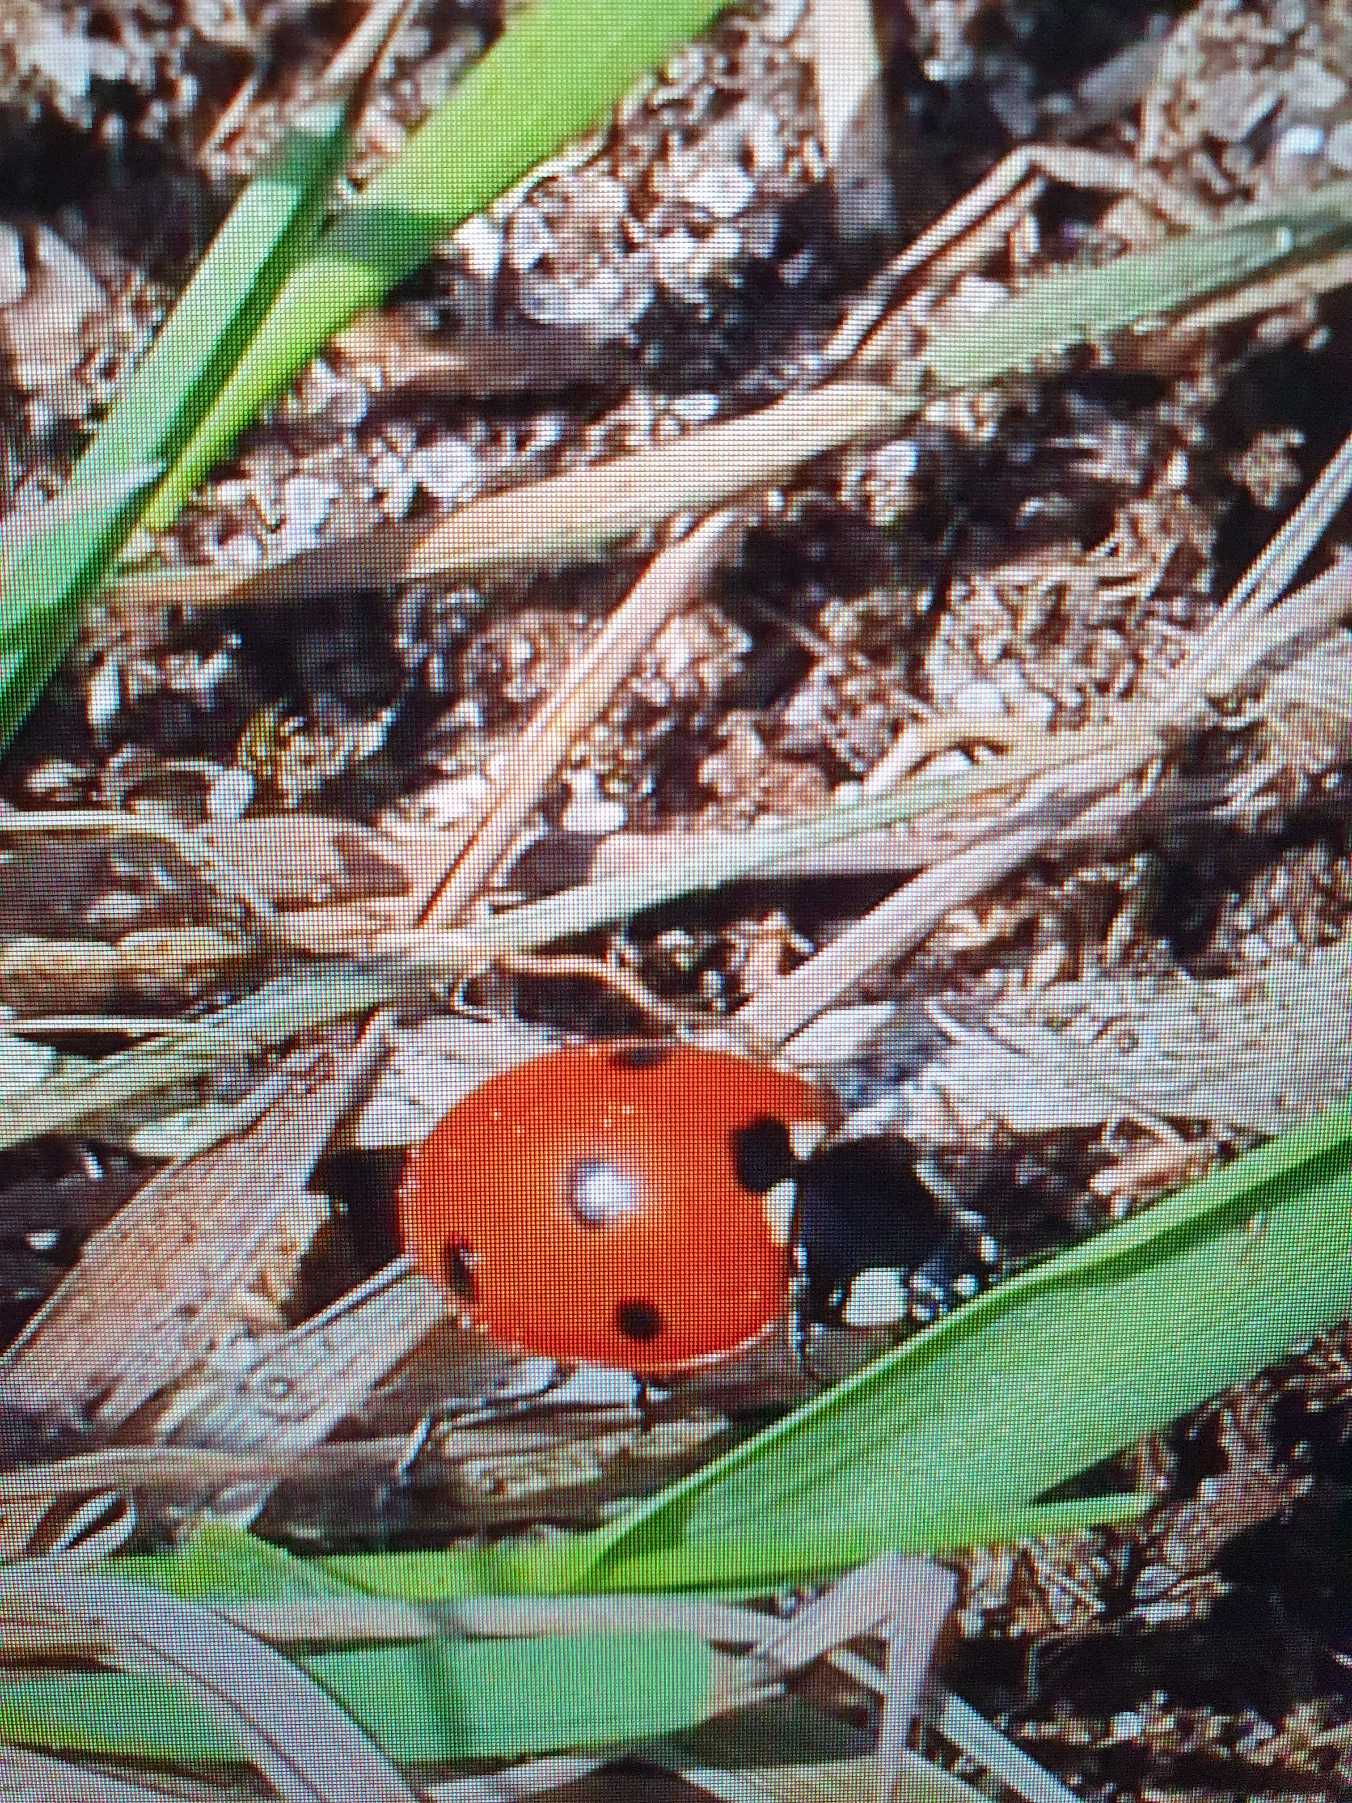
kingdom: Animalia
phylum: Arthropoda
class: Insecta
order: Coleoptera
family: Coccinellidae
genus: Coccinella
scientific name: Coccinella septempunctata
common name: Syvplettet mariehøne
